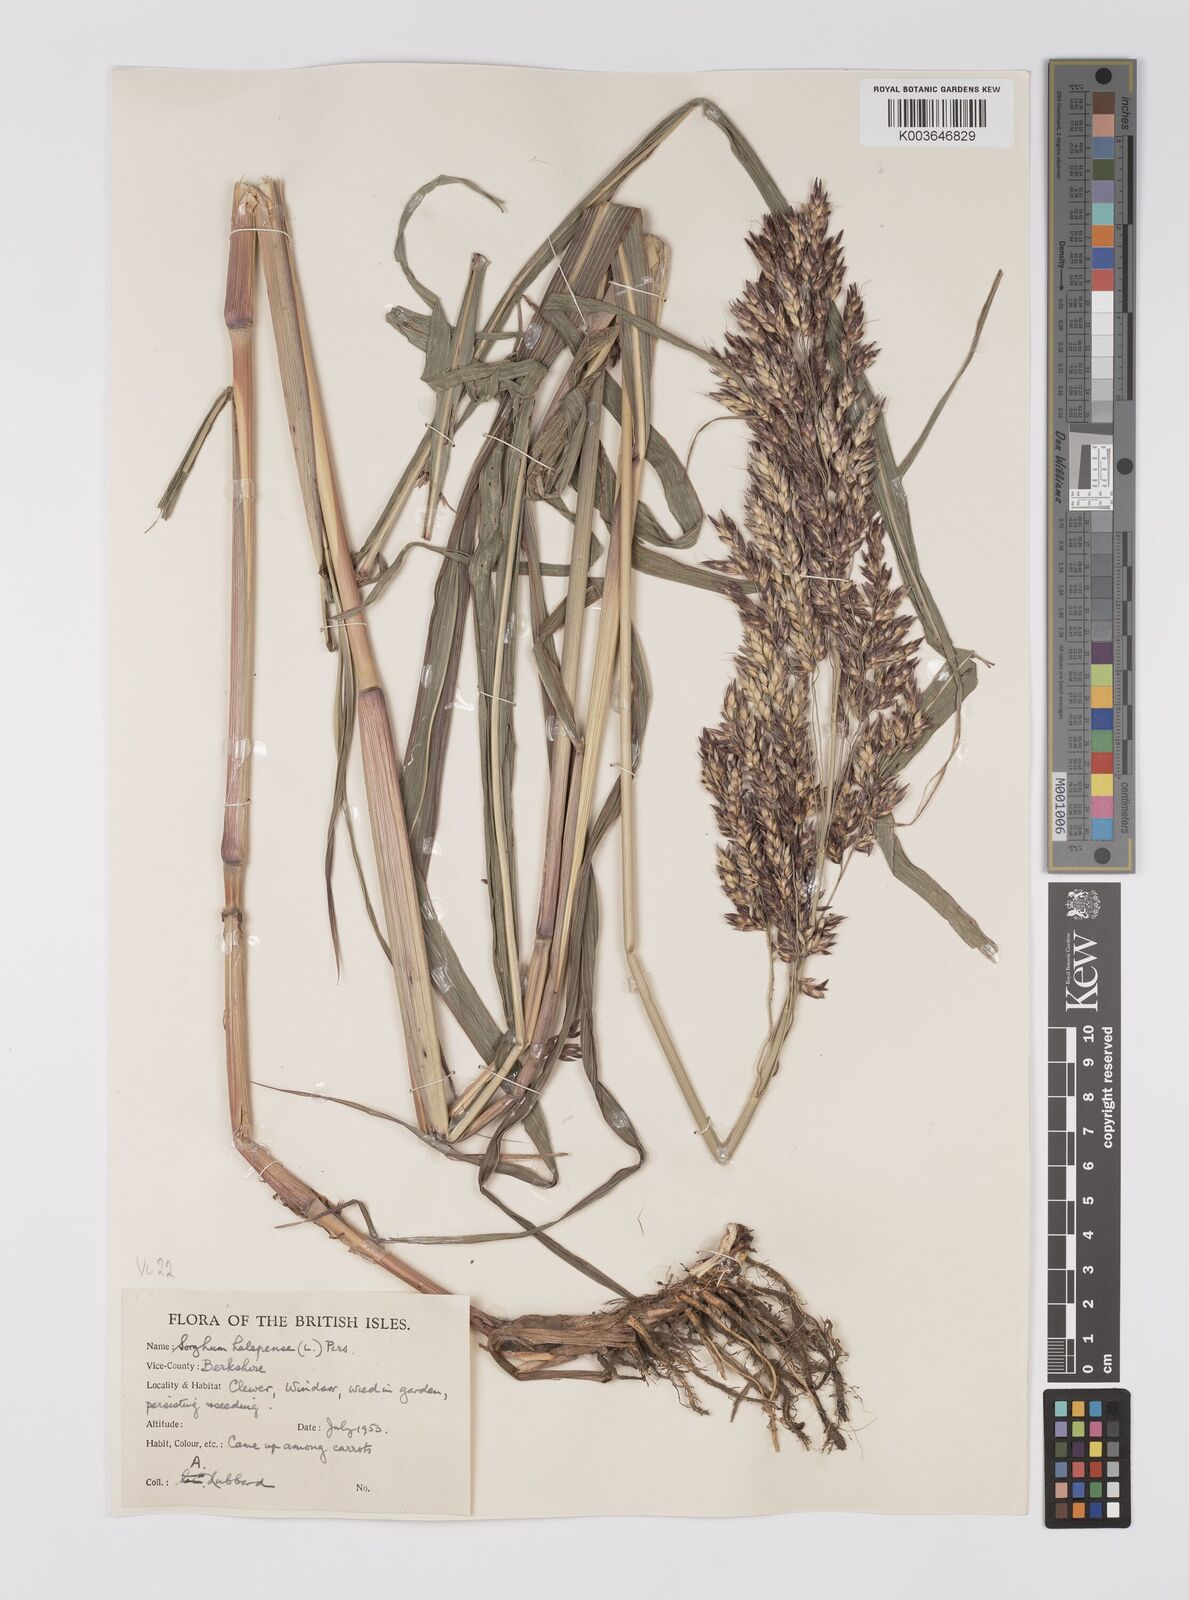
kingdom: Plantae
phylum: Tracheophyta
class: Liliopsida
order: Poales
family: Poaceae
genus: Sorghum
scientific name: Sorghum halepense
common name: Johnson-grass
